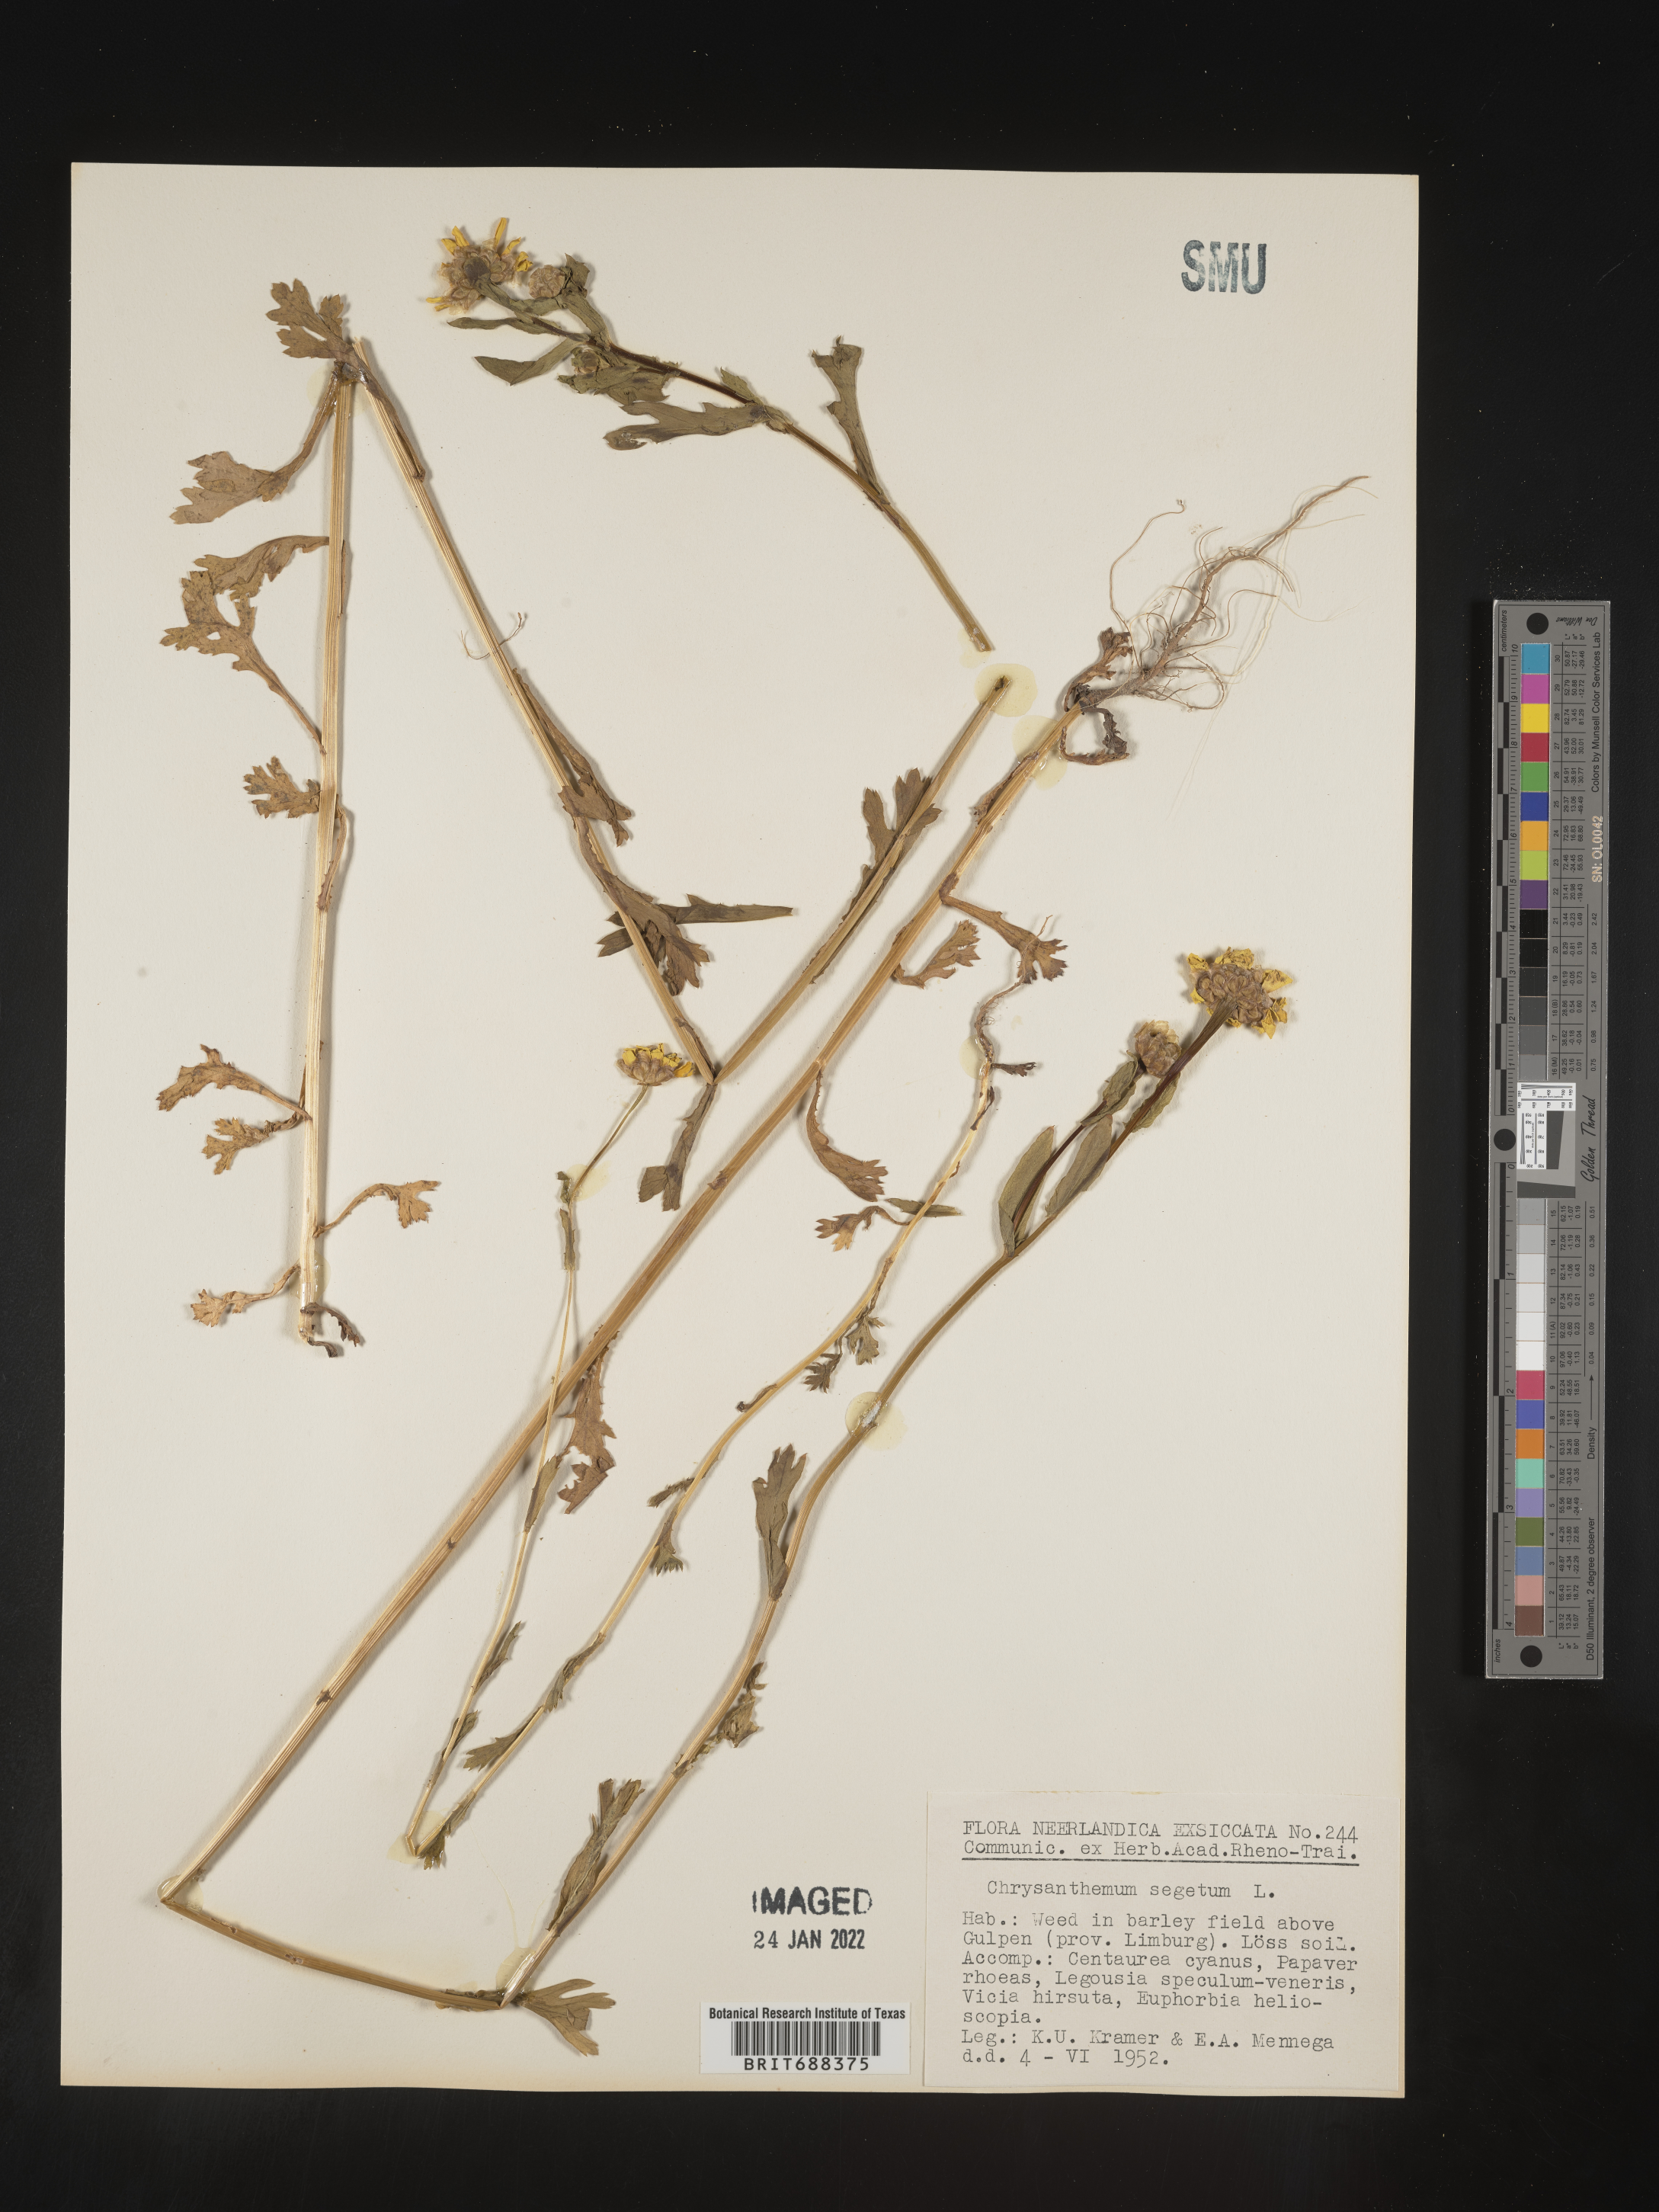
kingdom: Plantae
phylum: Tracheophyta
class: Magnoliopsida
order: Asterales
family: Asteraceae
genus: Chrysanthemum
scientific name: Chrysanthemum
